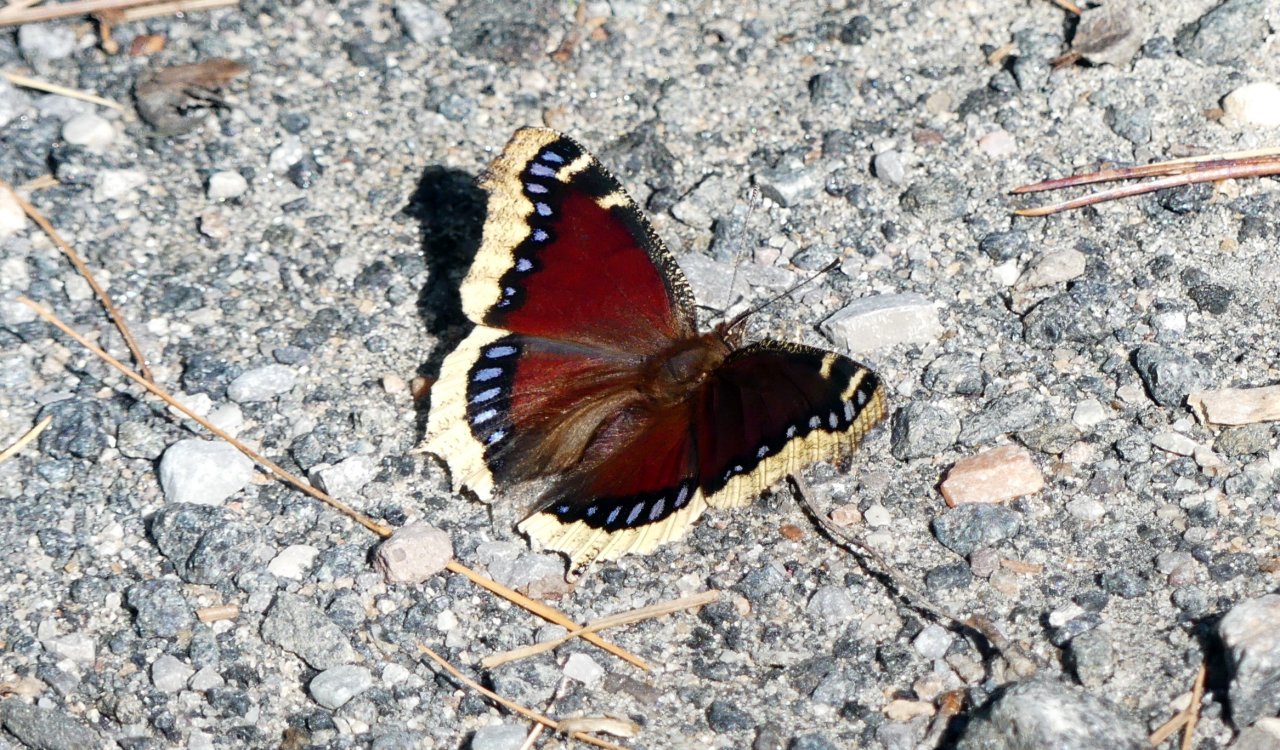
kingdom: Animalia
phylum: Arthropoda
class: Insecta
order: Lepidoptera
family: Nymphalidae
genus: Nymphalis
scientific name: Nymphalis antiopa
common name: Mourning Cloak
